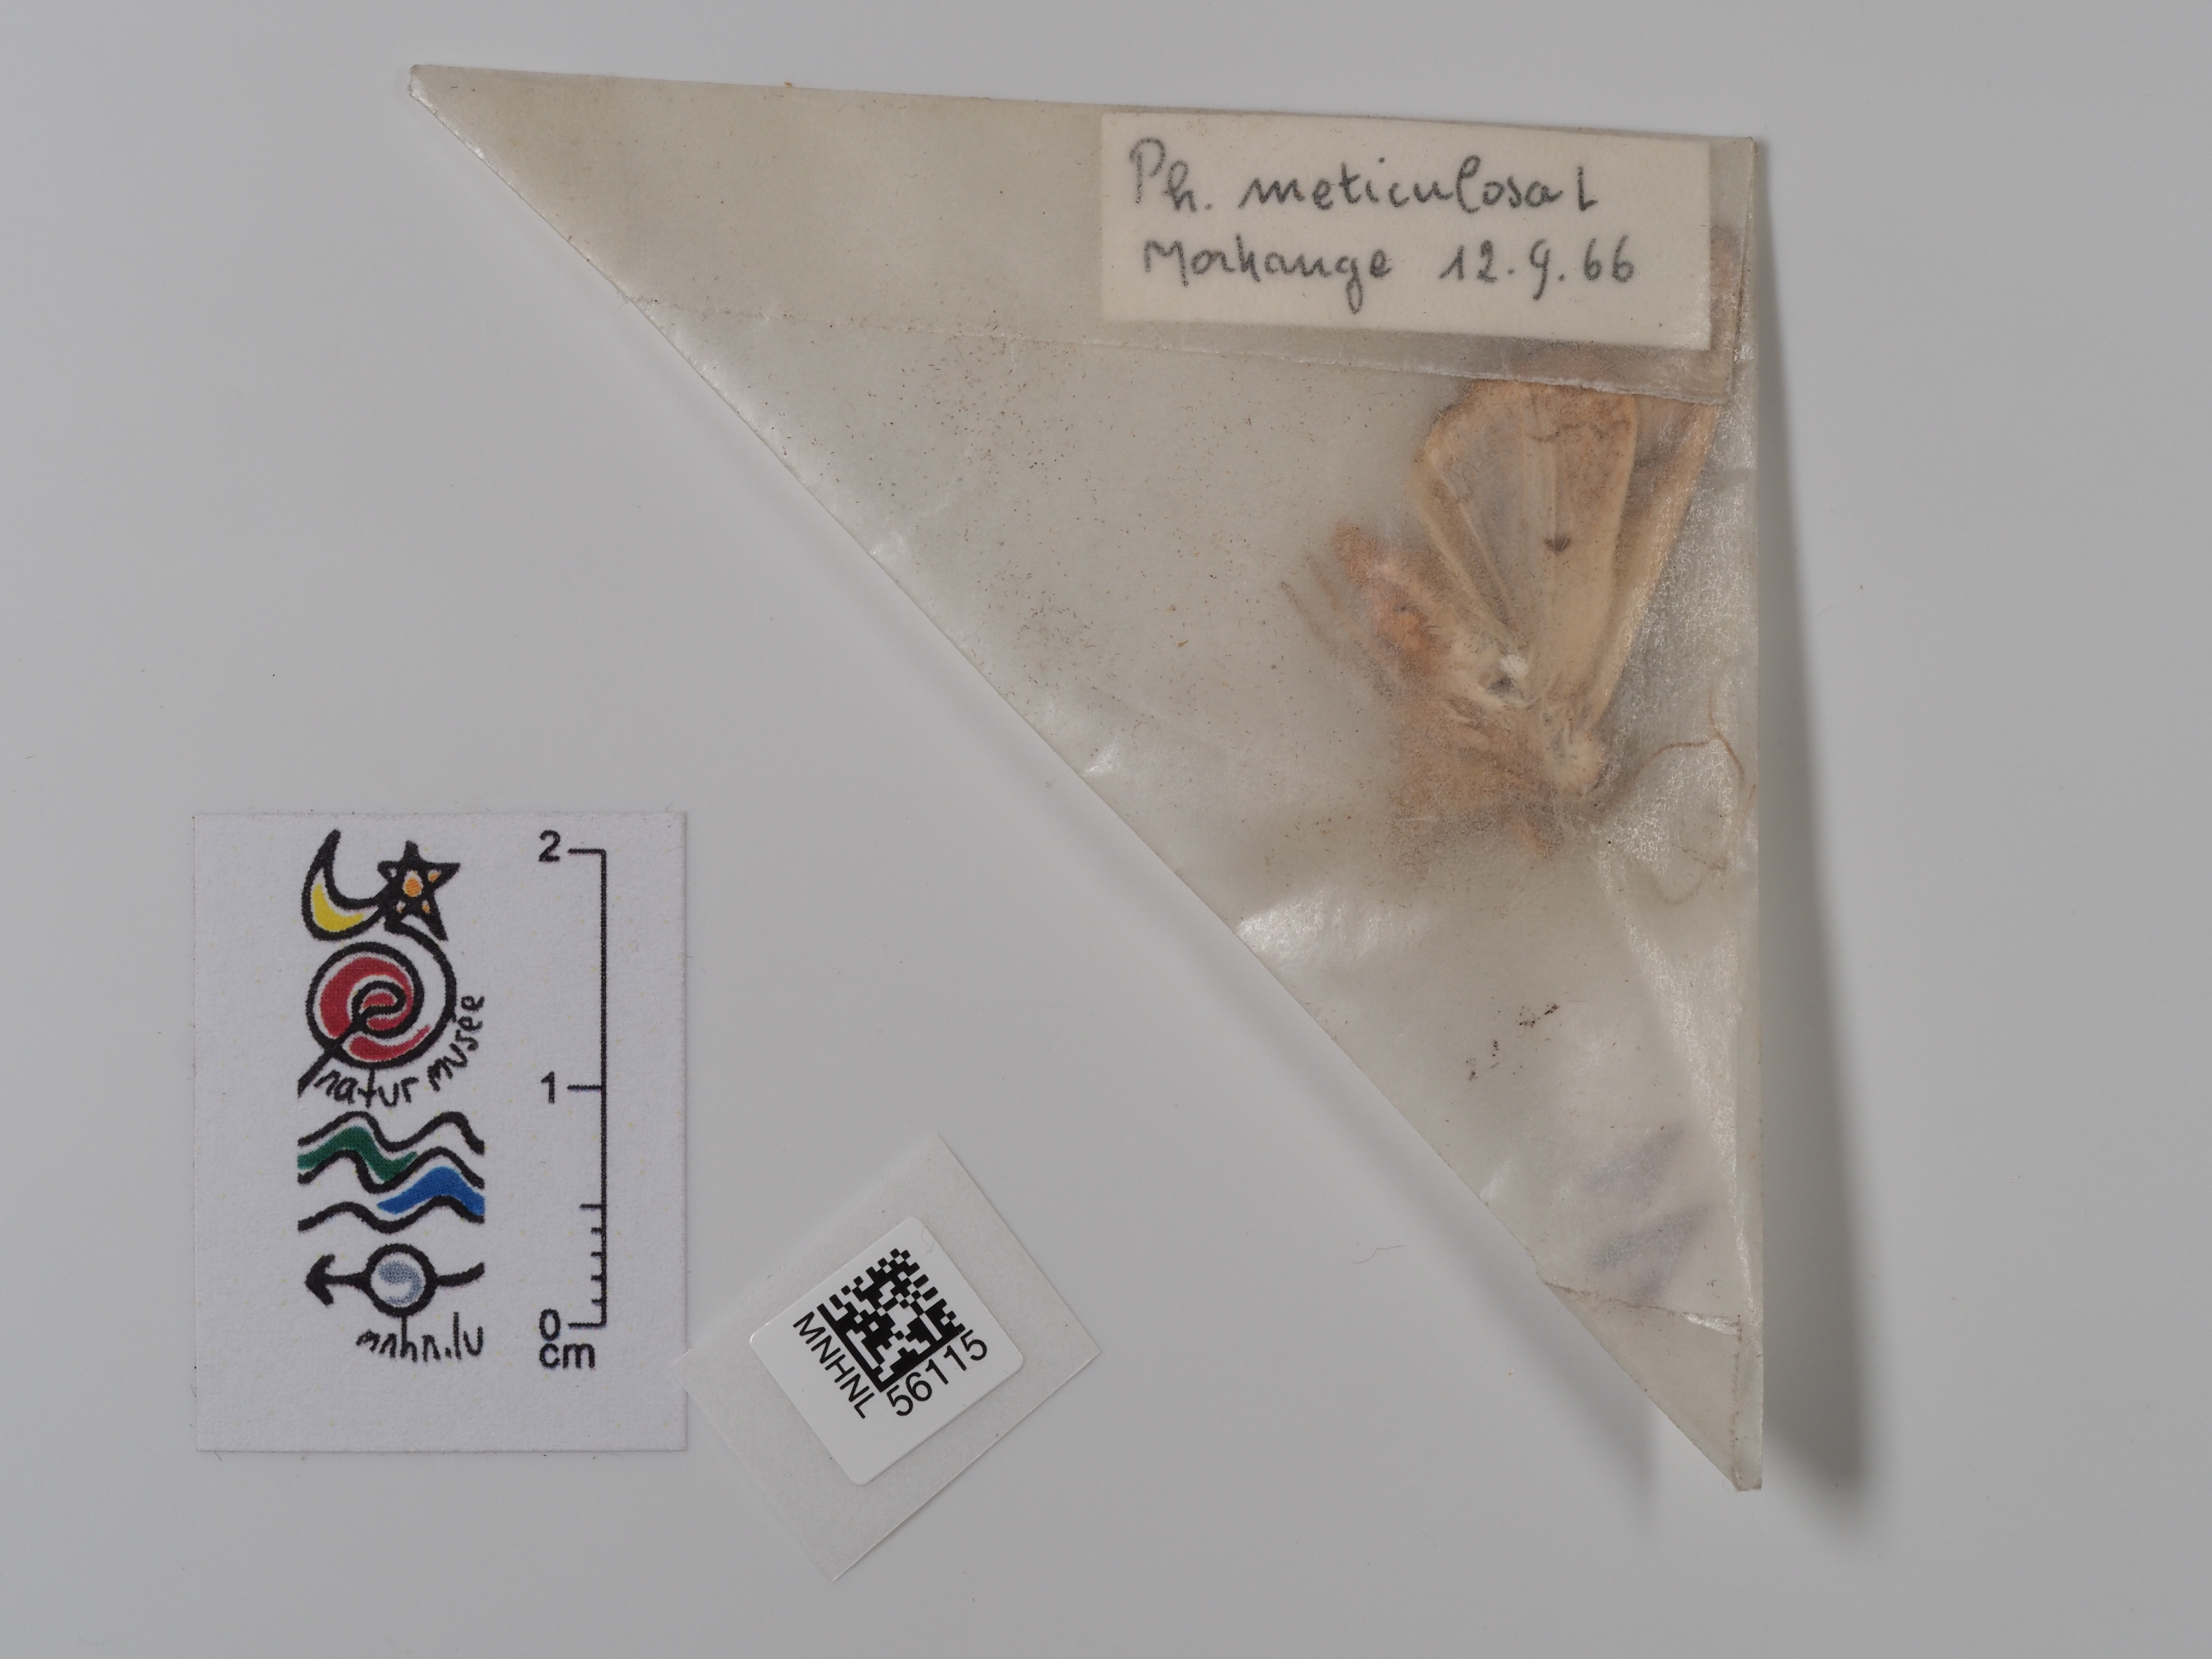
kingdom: Animalia
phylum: Arthropoda
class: Insecta
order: Lepidoptera
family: Noctuidae
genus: Phlogophora
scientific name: Phlogophora meticulosa
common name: Angle shades
